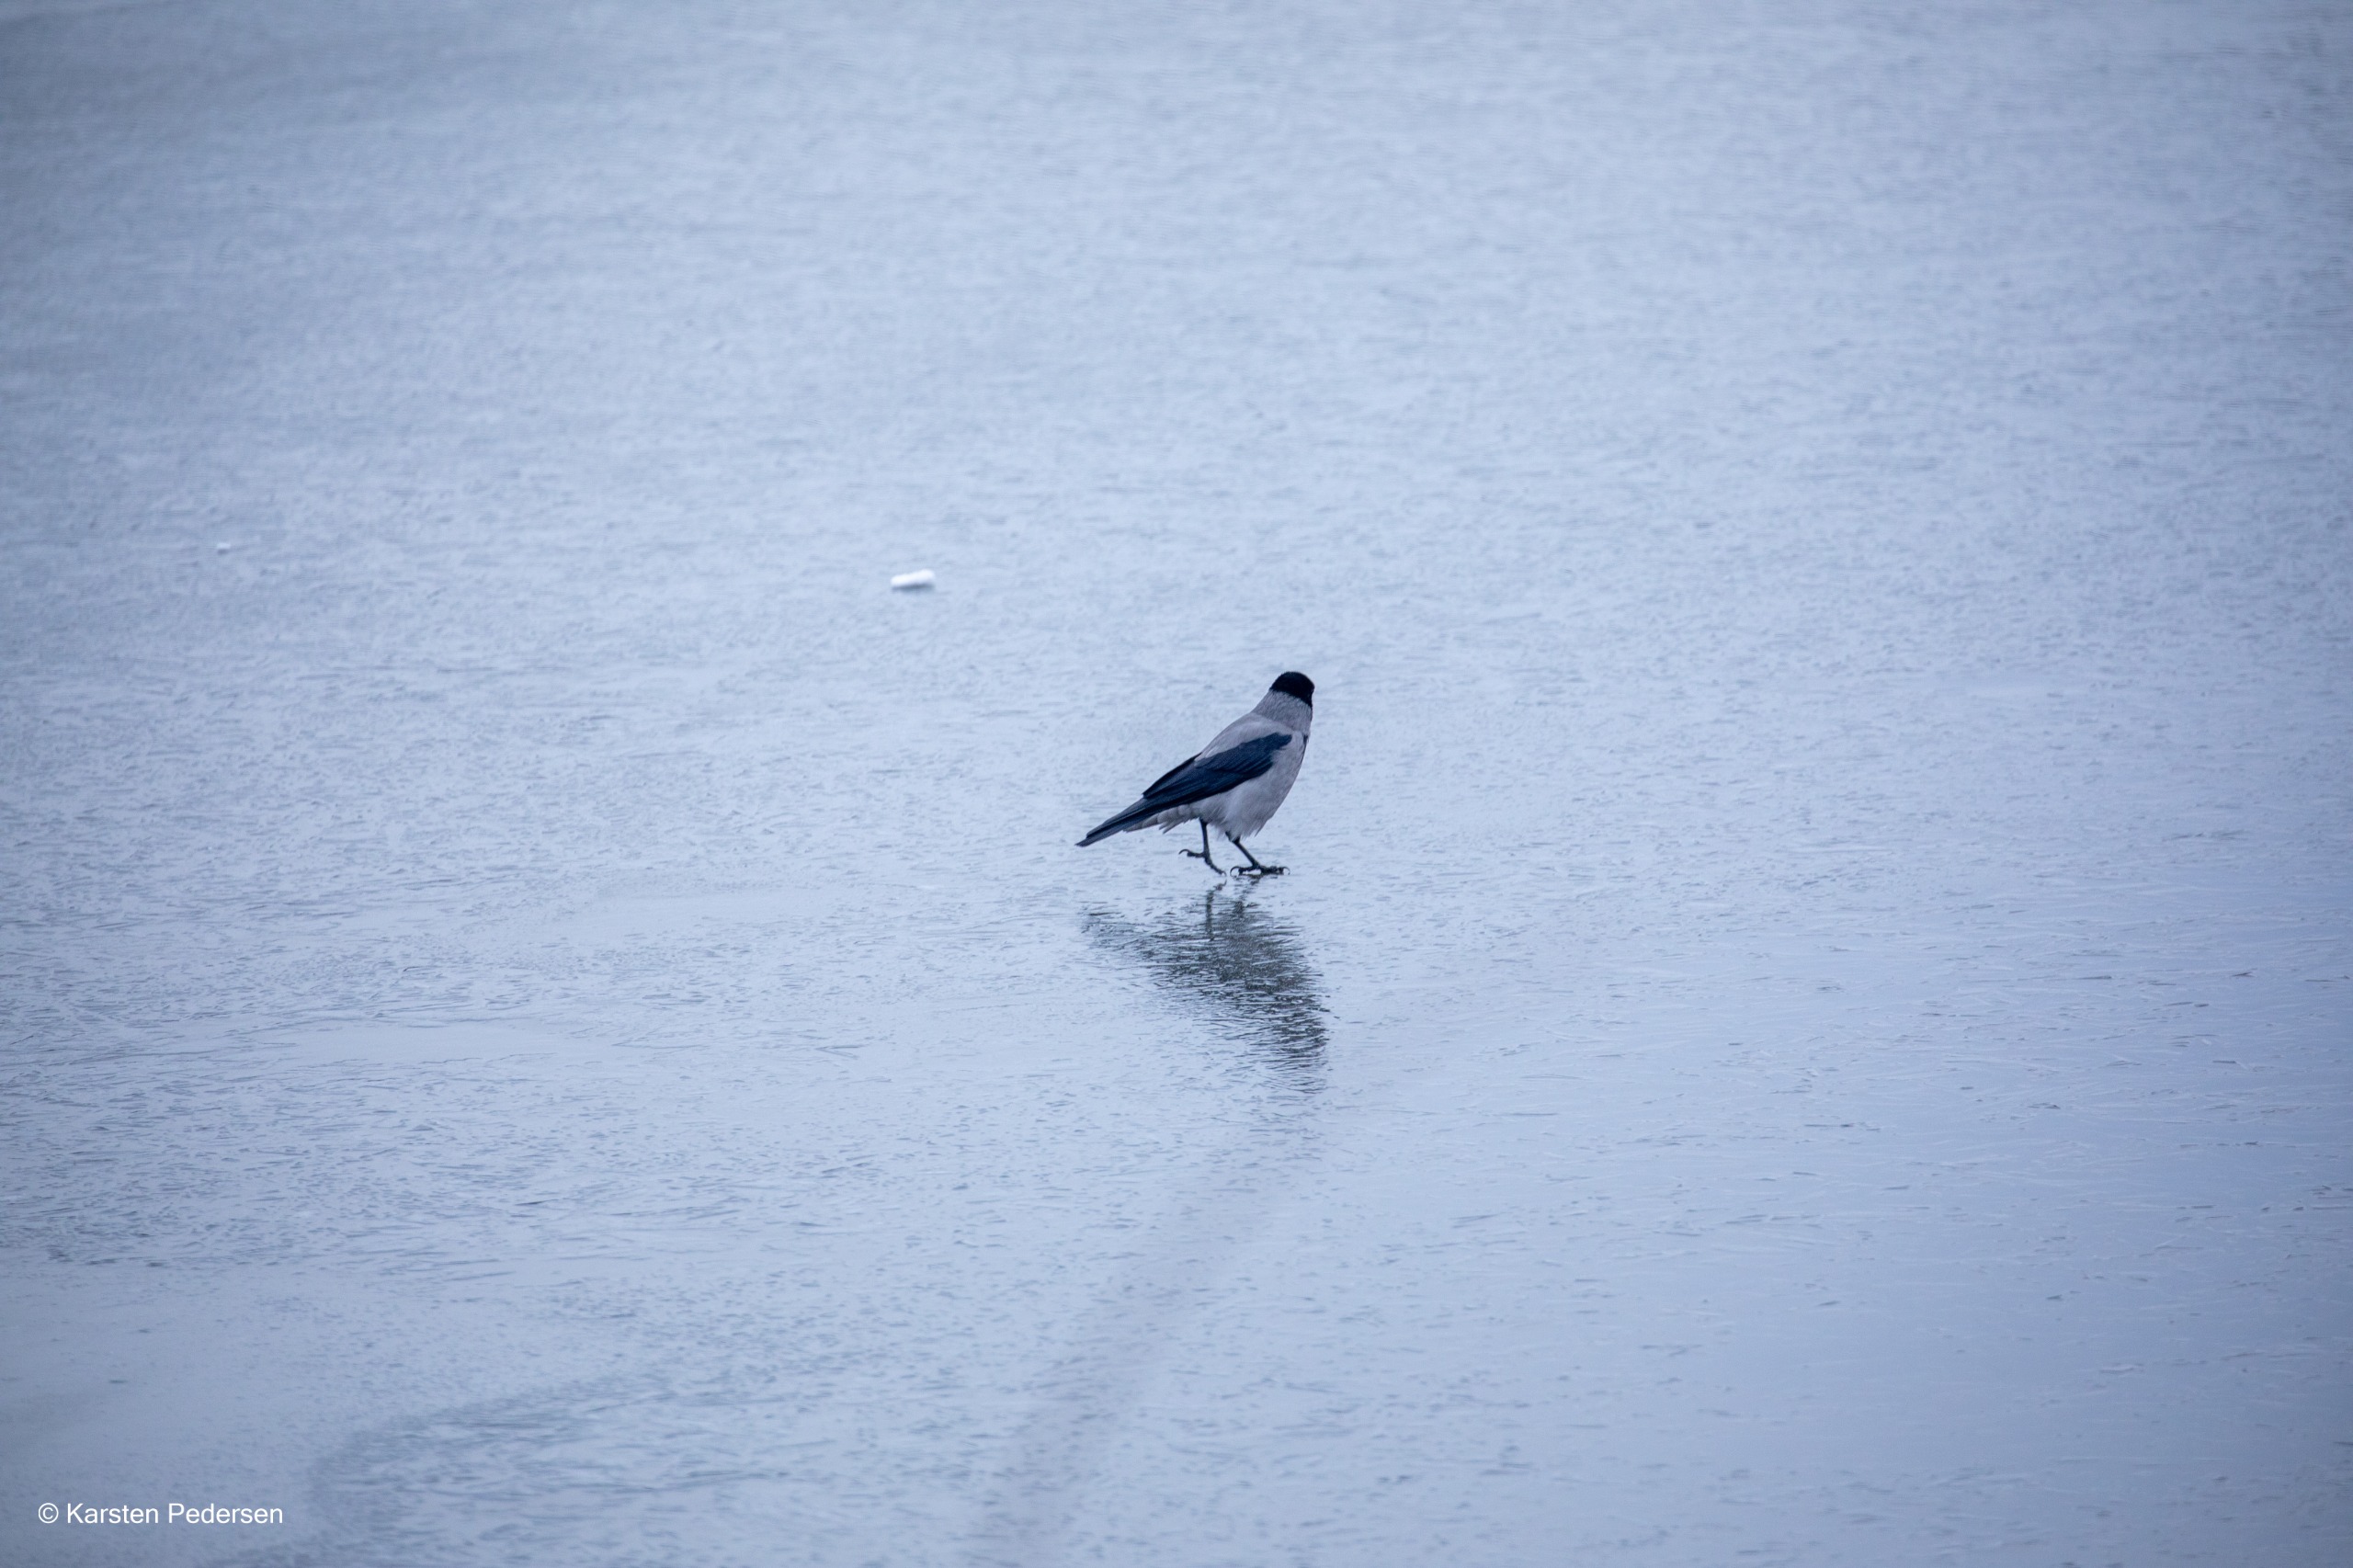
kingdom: Animalia
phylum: Chordata
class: Aves
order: Passeriformes
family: Corvidae
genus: Corvus
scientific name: Corvus cornix
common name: Gråkrage
